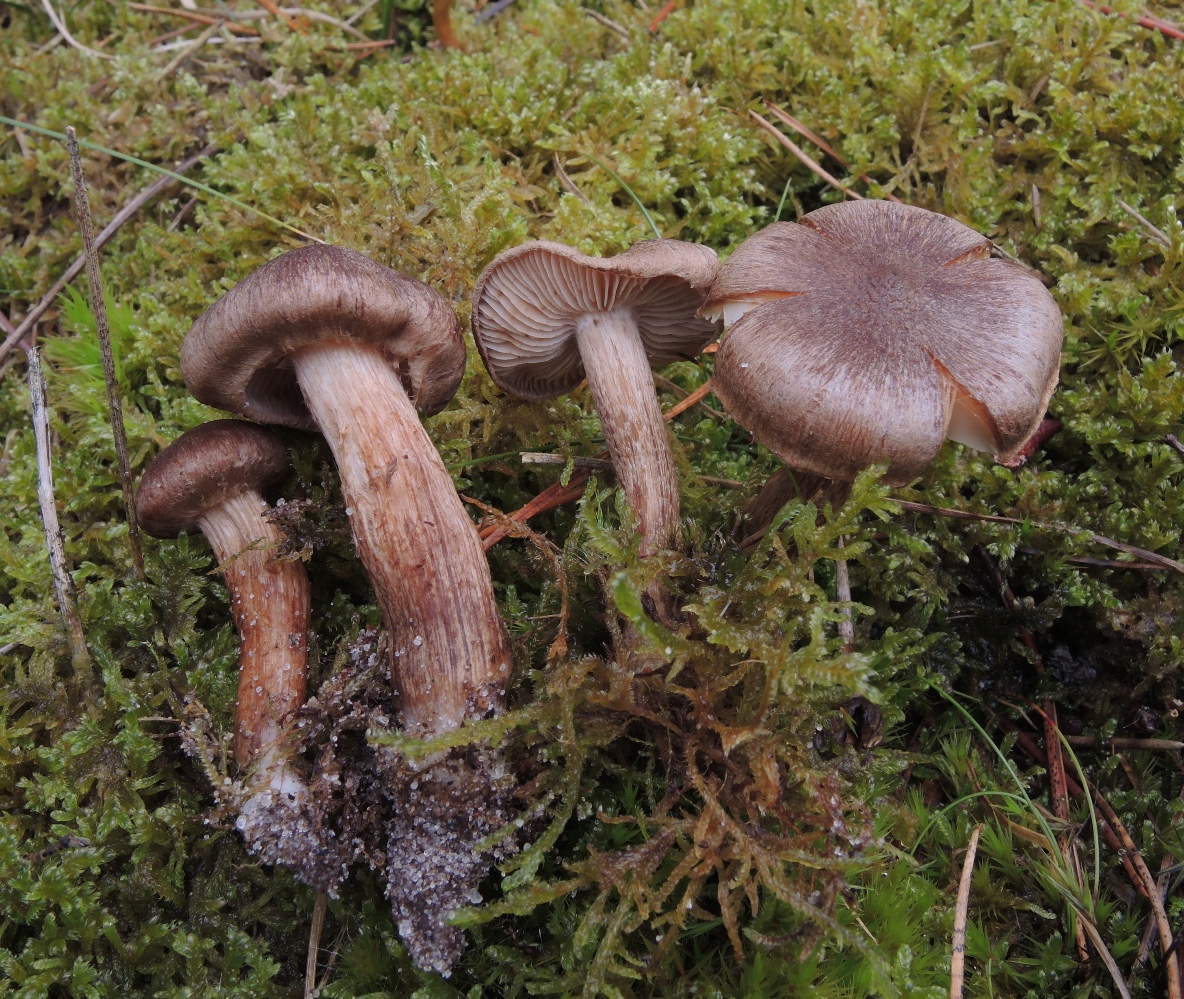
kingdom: Fungi
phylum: Basidiomycota
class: Agaricomycetes
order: Agaricales
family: Inocybaceae
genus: Inocybe
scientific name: Inocybe subcarpta
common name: plantage-trævlhat
